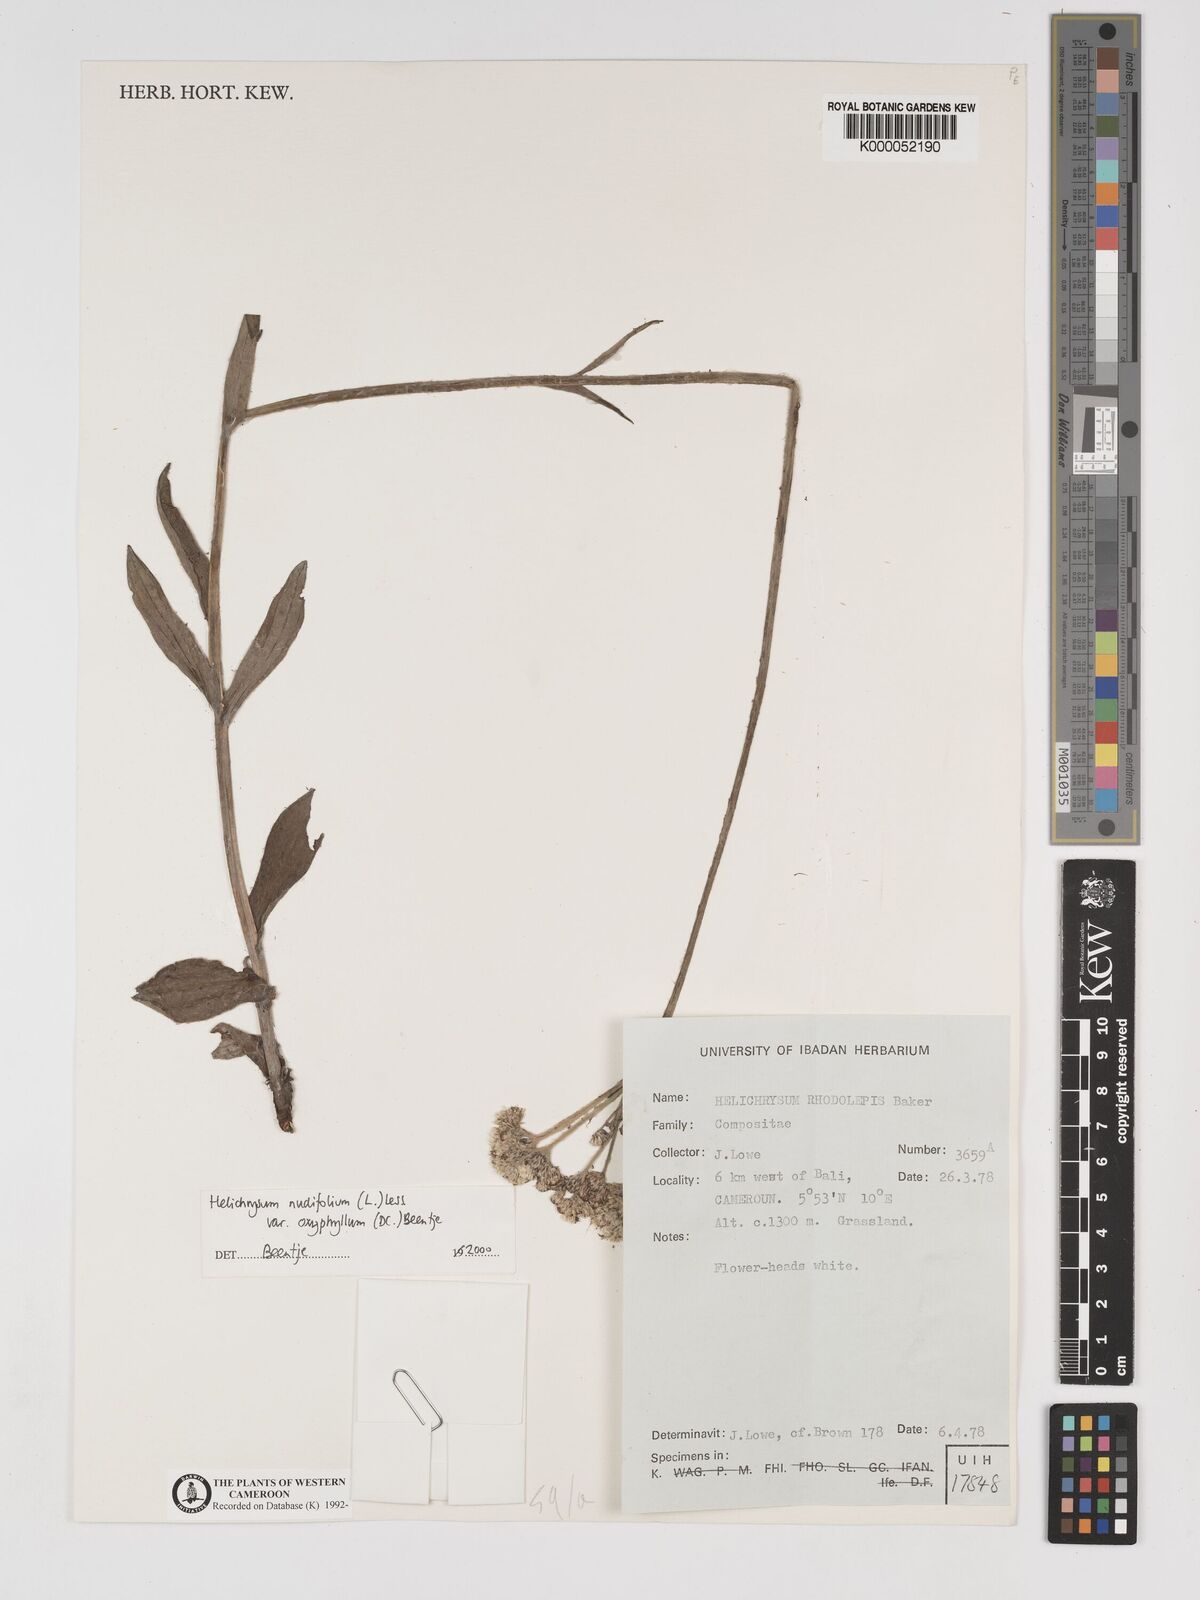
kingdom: Plantae
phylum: Tracheophyta
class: Magnoliopsida
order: Asterales
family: Asteraceae
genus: Helichrysum
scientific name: Helichrysum nudifolium
